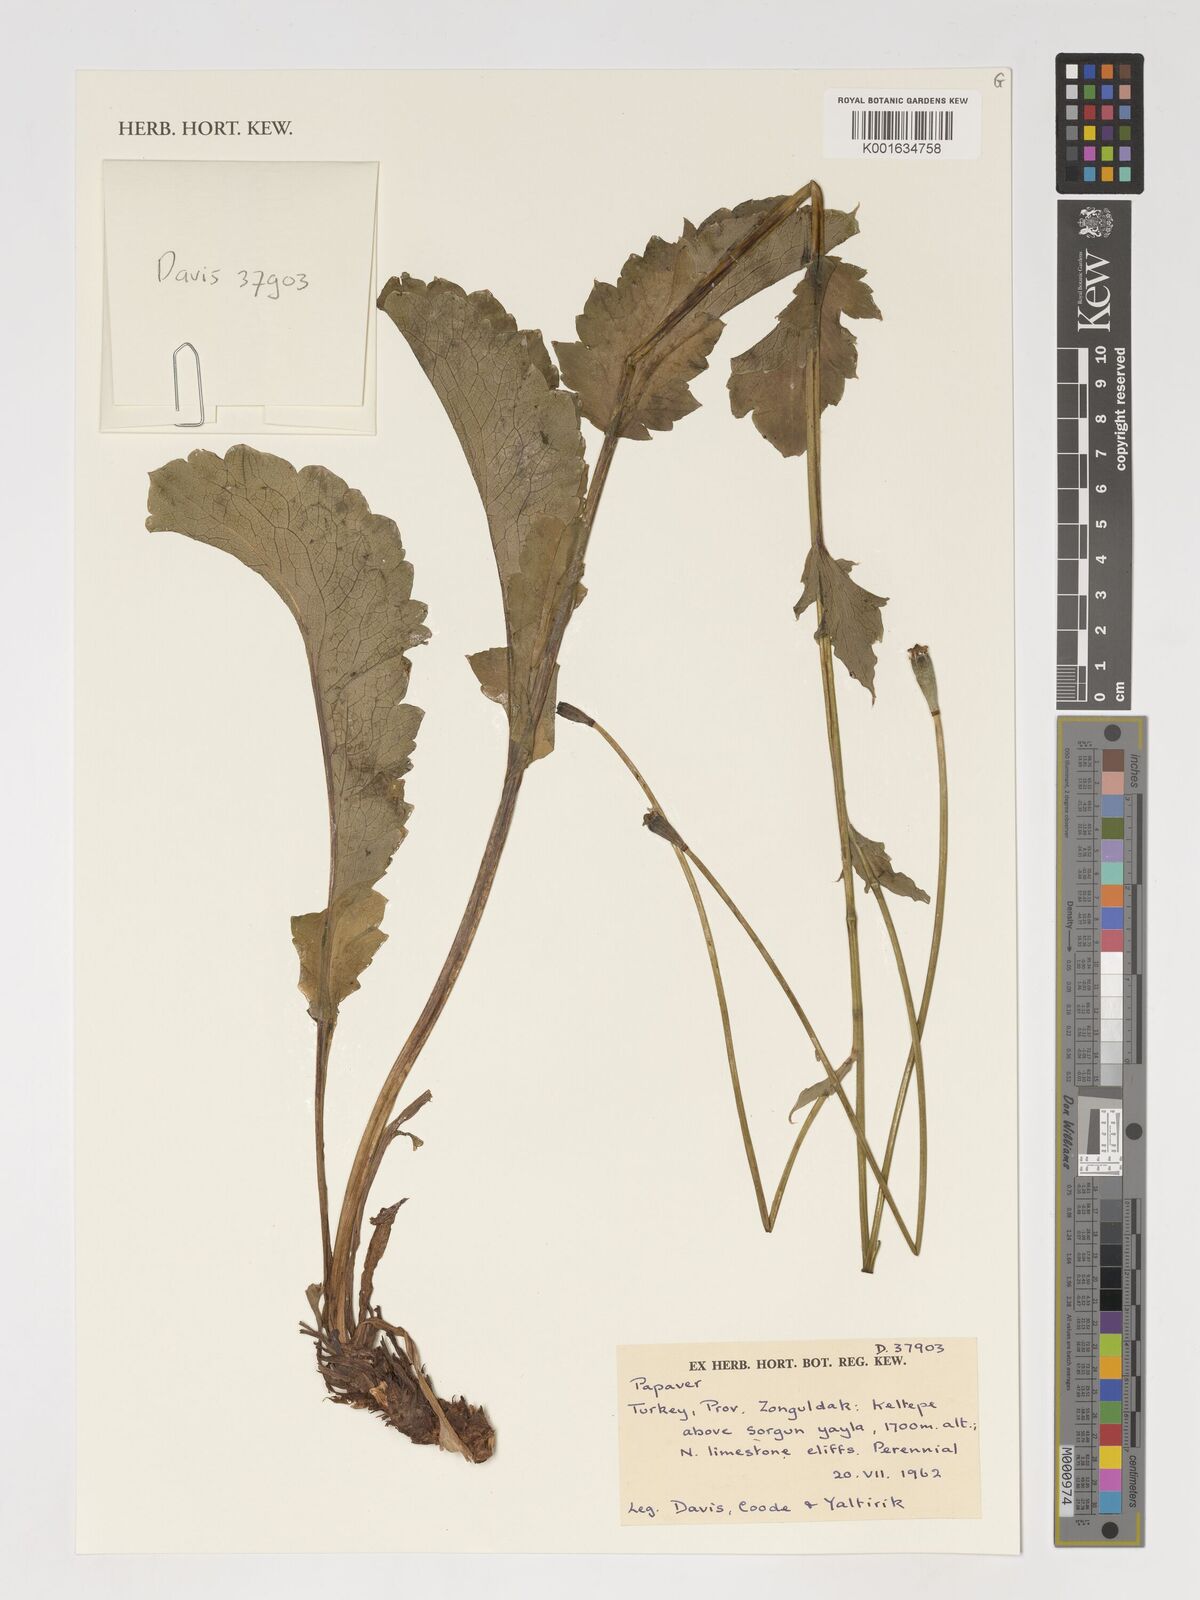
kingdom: Plantae
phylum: Tracheophyta
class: Magnoliopsida
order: Ranunculales
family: Papaveraceae
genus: Papaver
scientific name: Papaver
